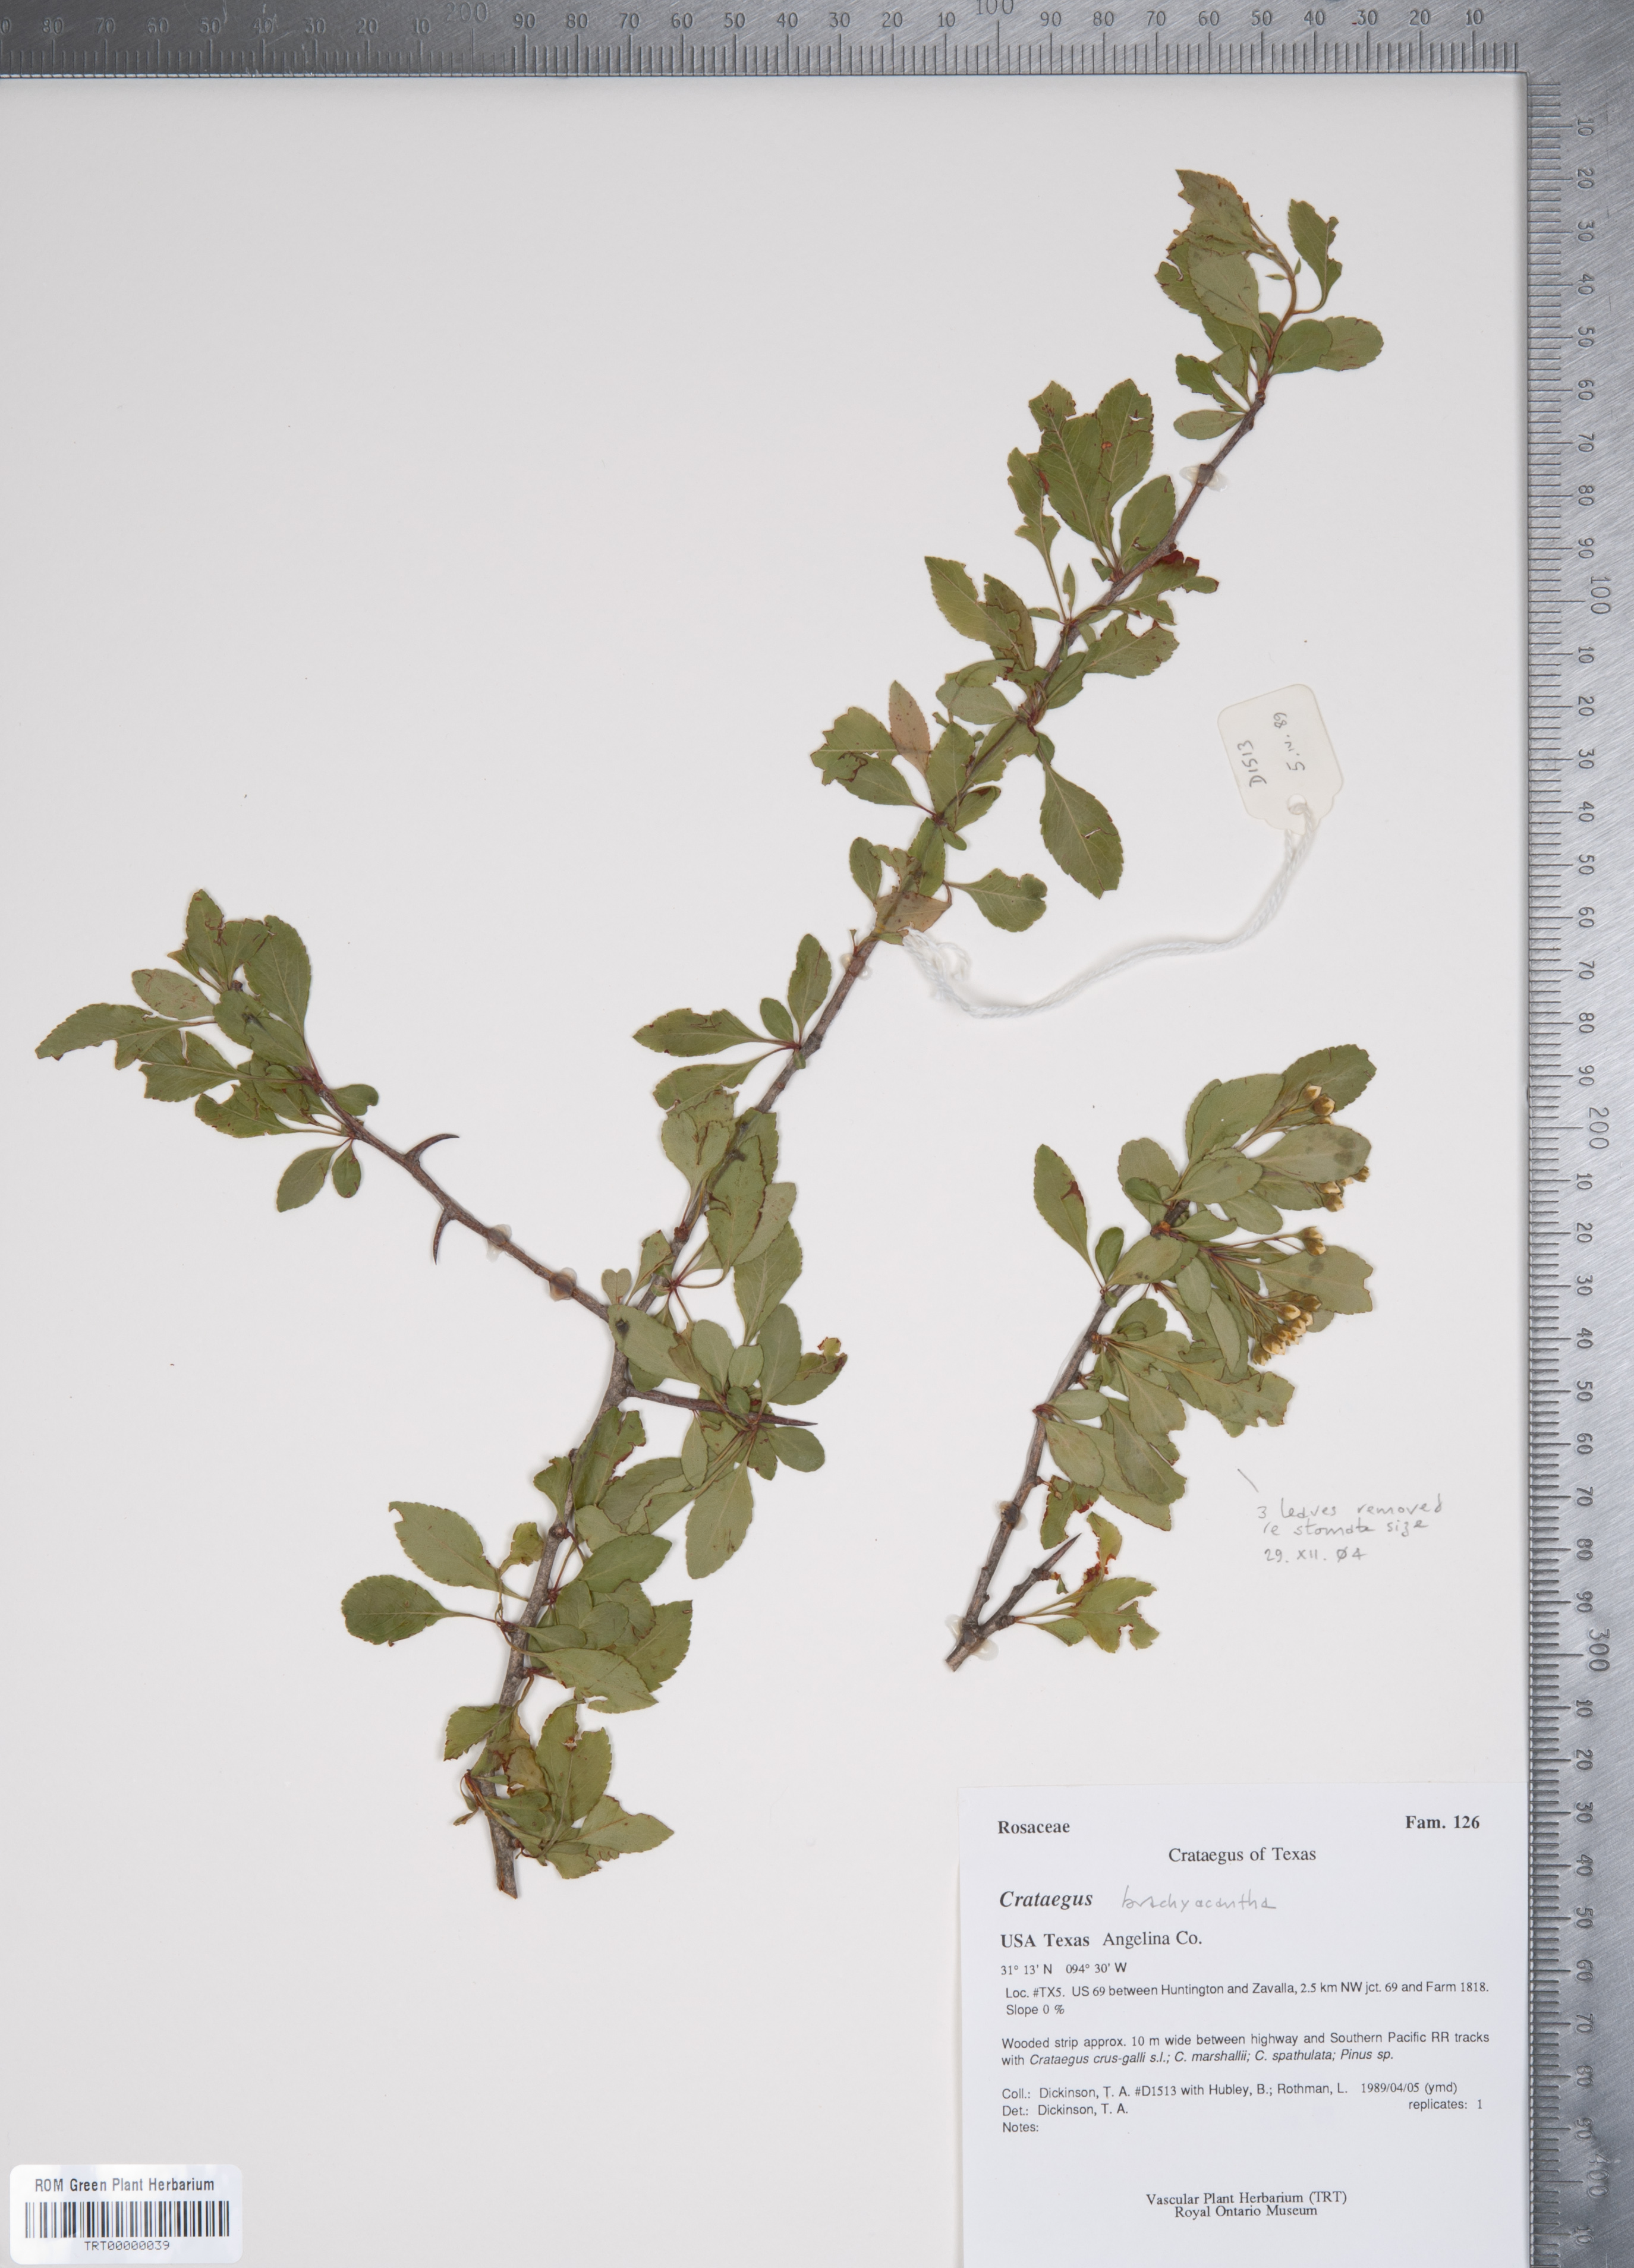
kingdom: Plantae
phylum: Tracheophyta
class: Magnoliopsida
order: Rosales
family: Rosaceae
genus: Crataegus
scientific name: Crataegus brachyacantha
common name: Blueberry-hawthorn
